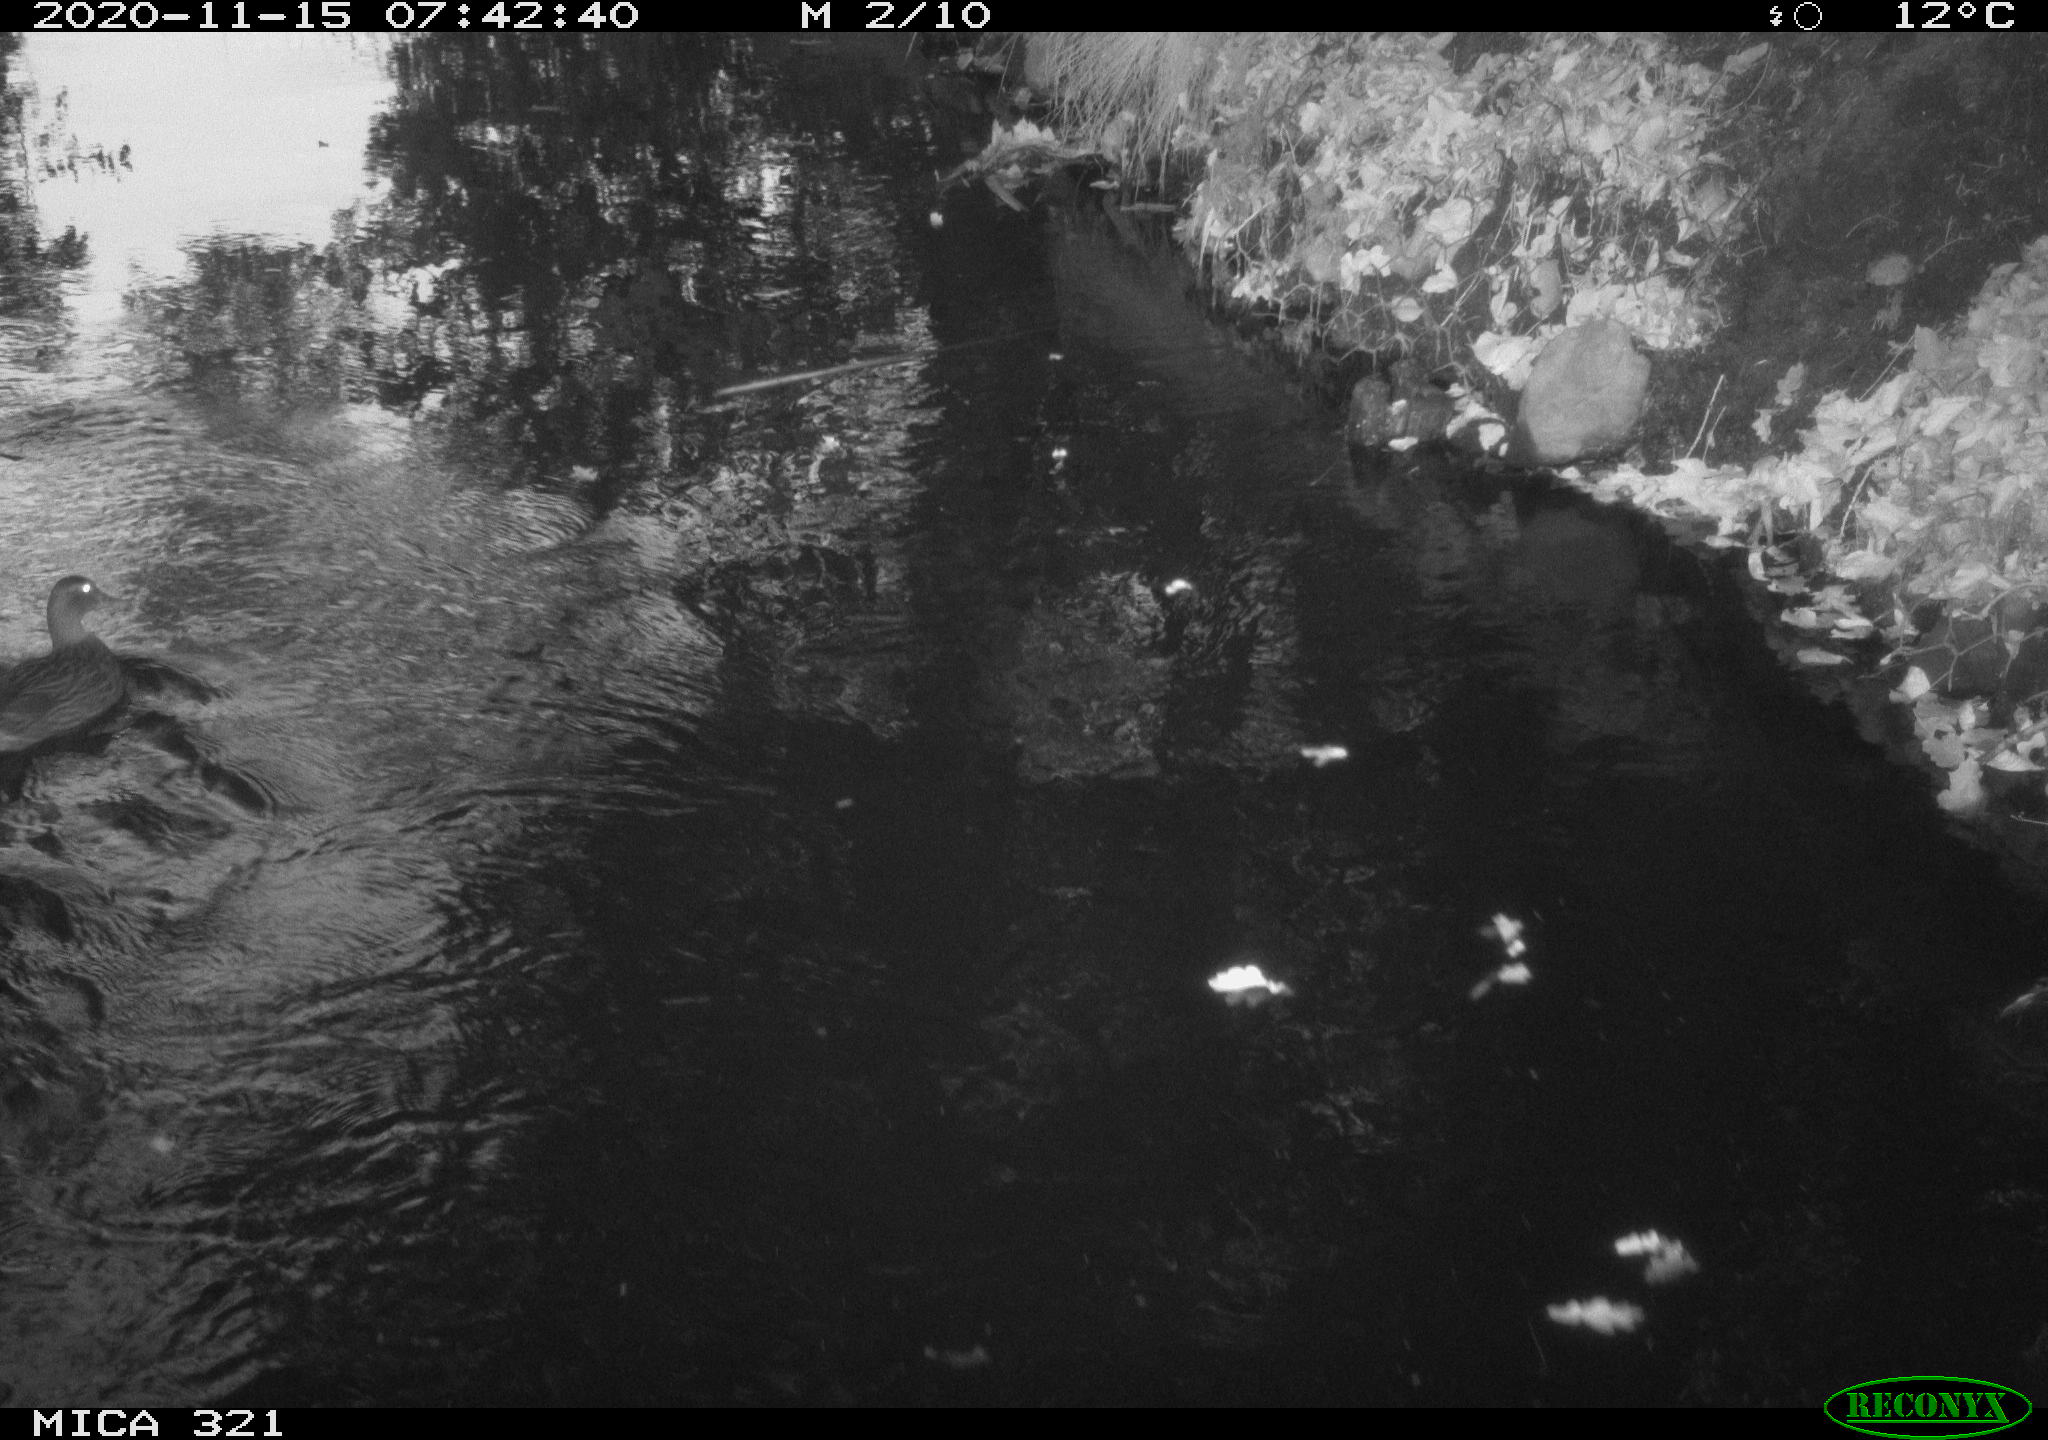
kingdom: Animalia
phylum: Chordata
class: Aves
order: Anseriformes
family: Anatidae
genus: Anas
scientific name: Anas platyrhynchos
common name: Mallard
